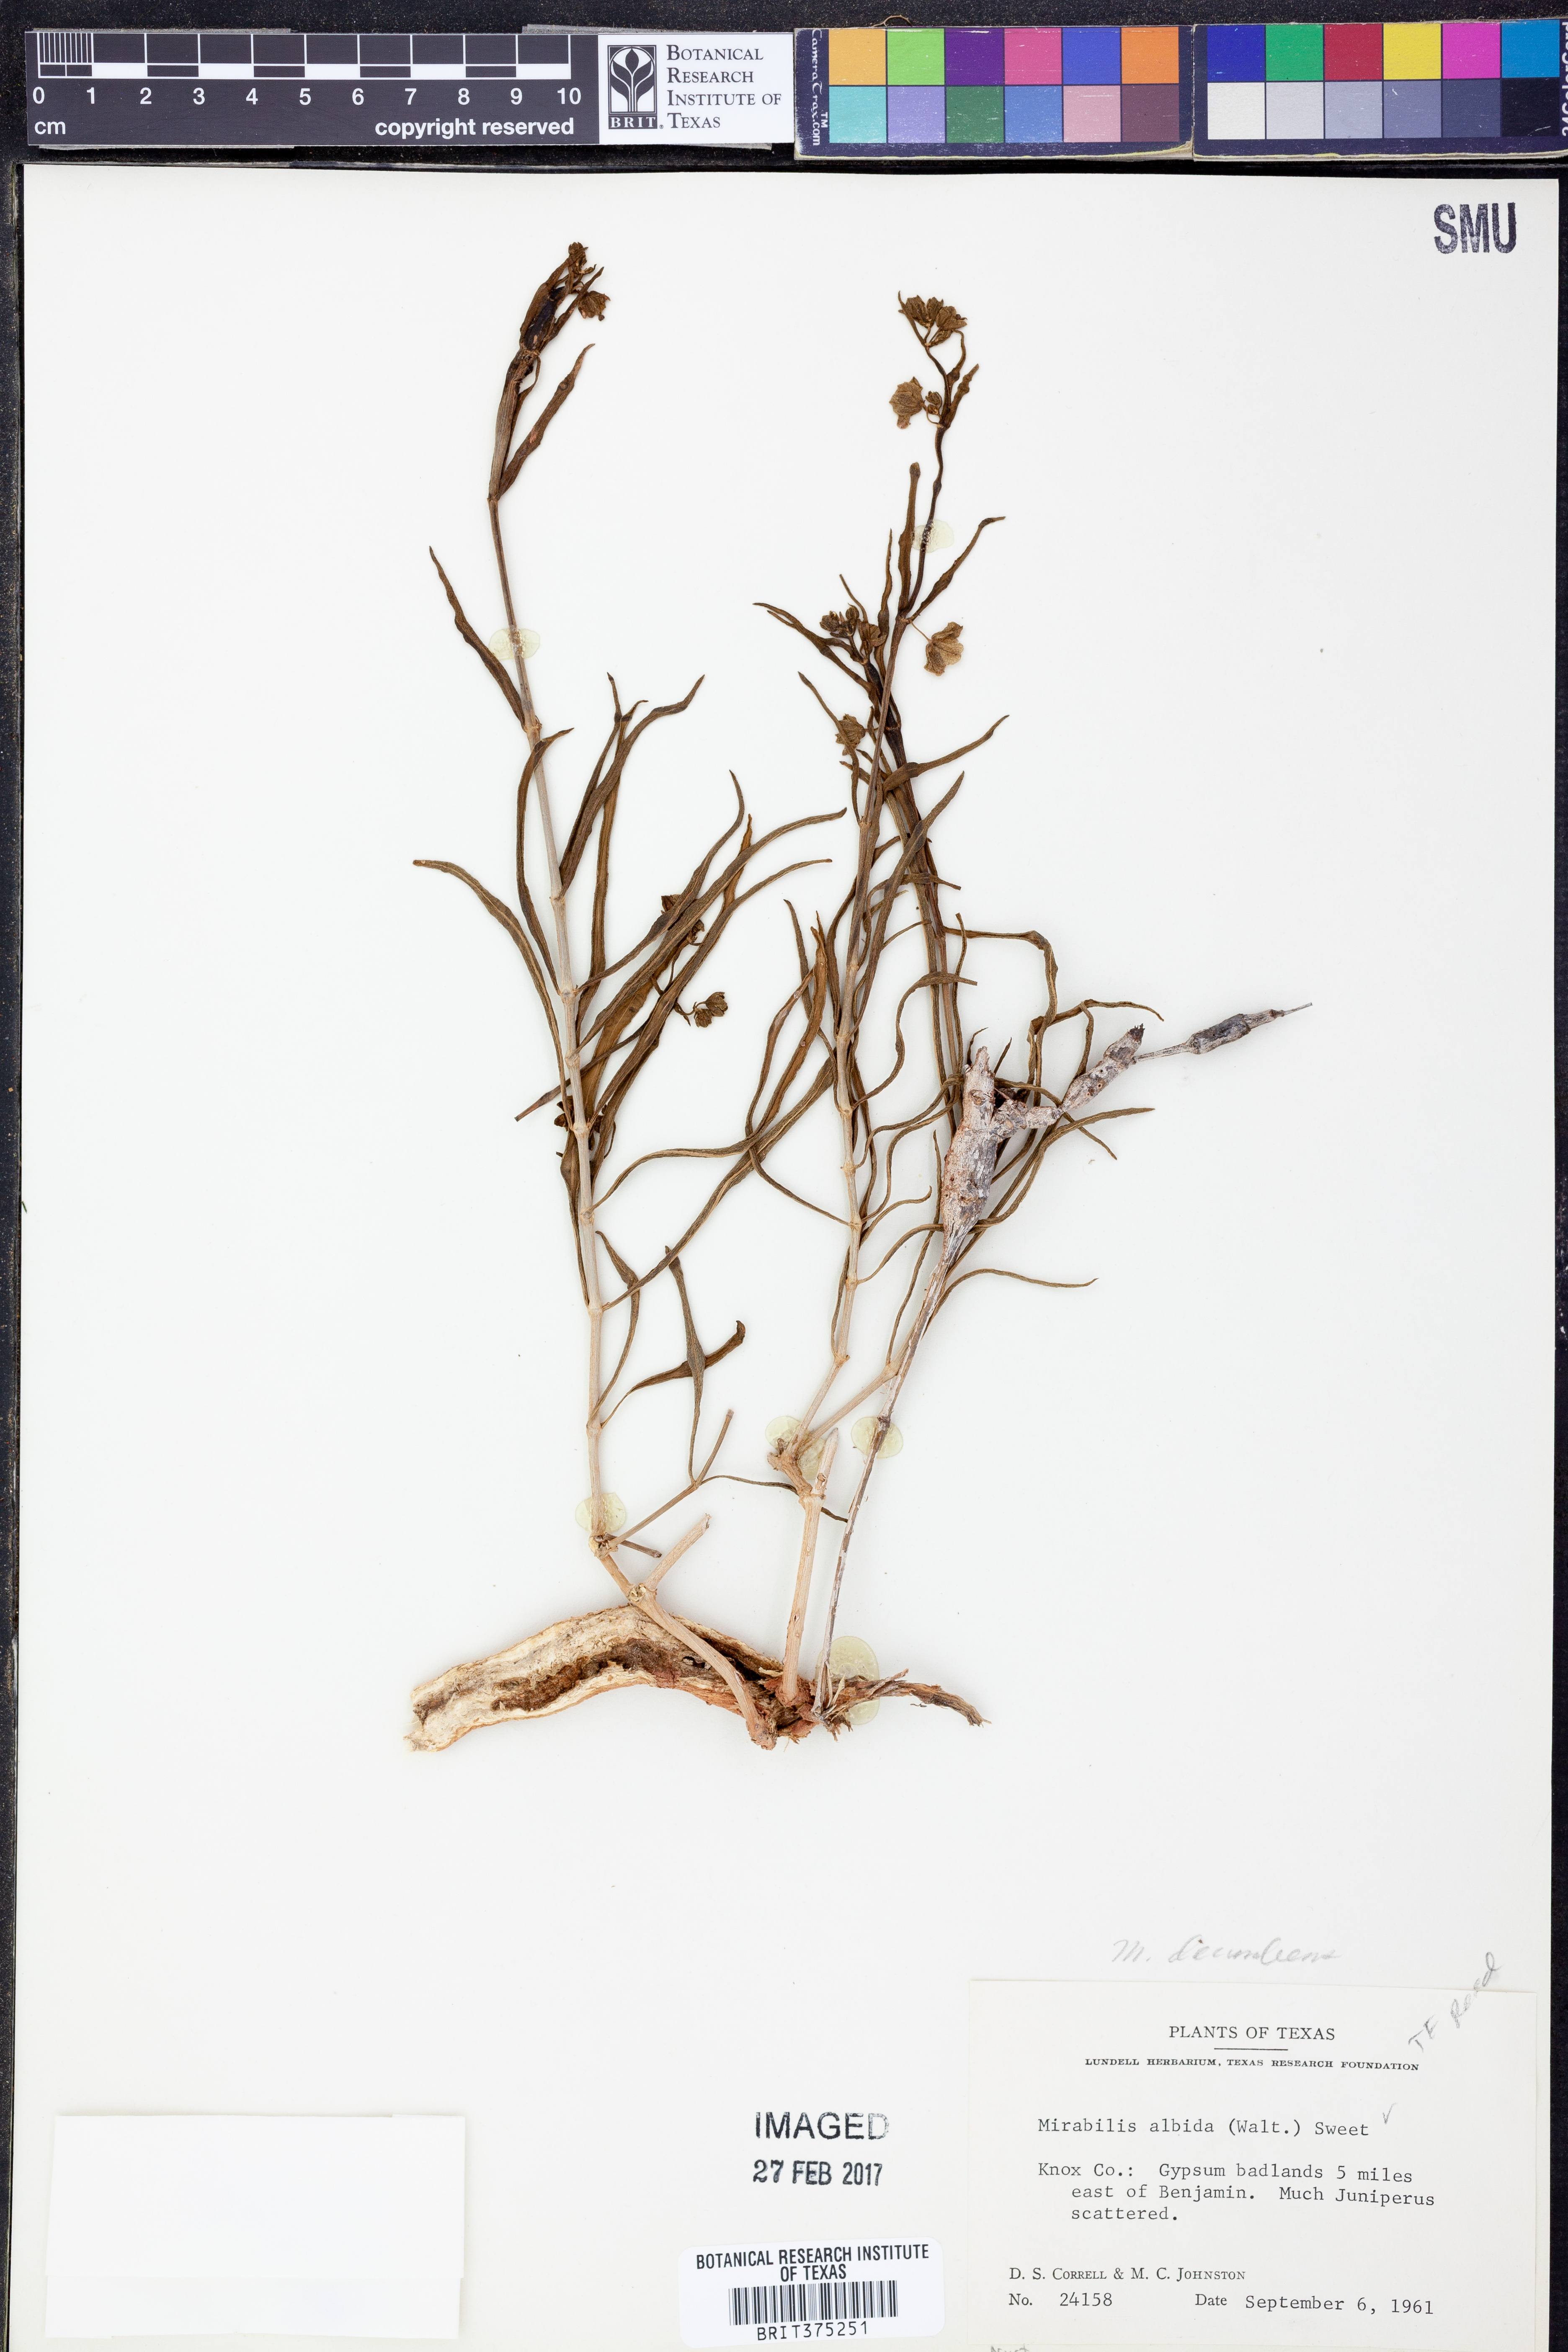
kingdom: Plantae
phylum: Tracheophyta
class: Magnoliopsida
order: Caryophyllales
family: Nyctaginaceae
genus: Mirabilis
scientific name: Mirabilis linearis
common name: Linear-leaved four-o'clock
